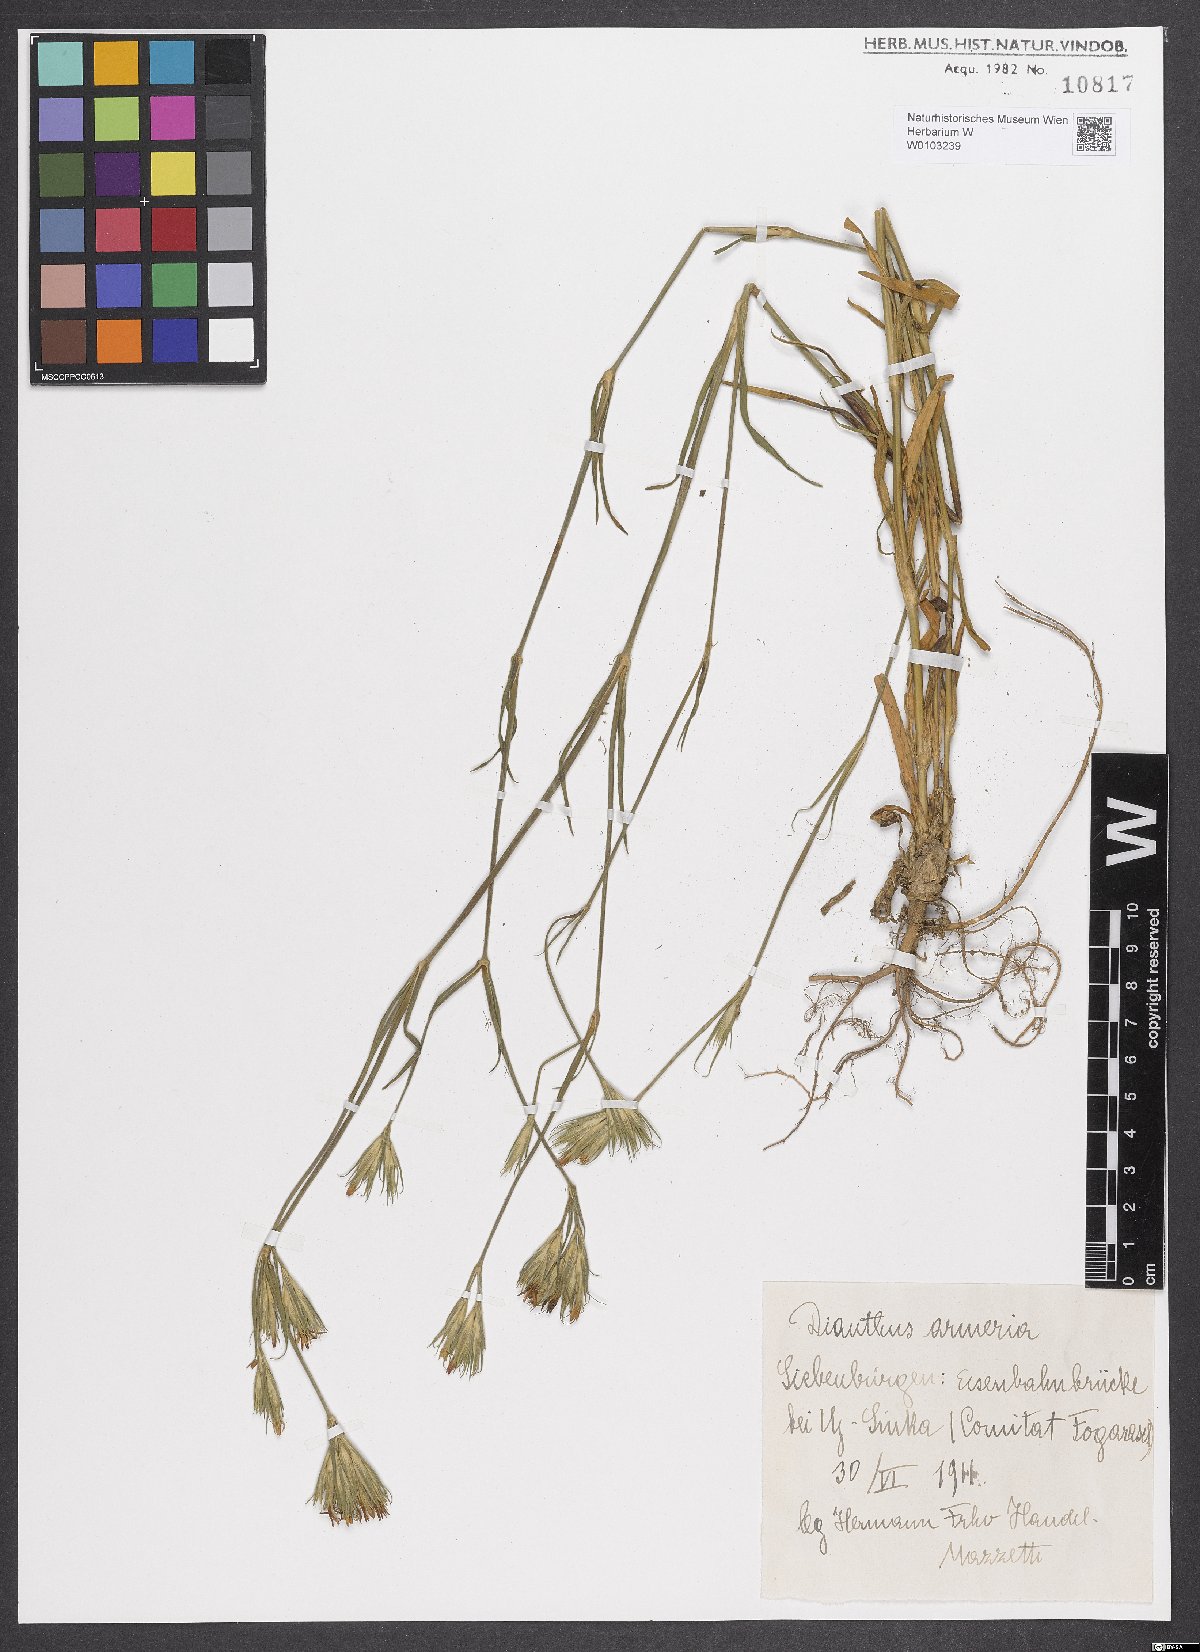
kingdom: Plantae
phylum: Tracheophyta
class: Magnoliopsida
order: Caryophyllales
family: Caryophyllaceae
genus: Dianthus
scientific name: Dianthus armeria
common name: Deptford pink
